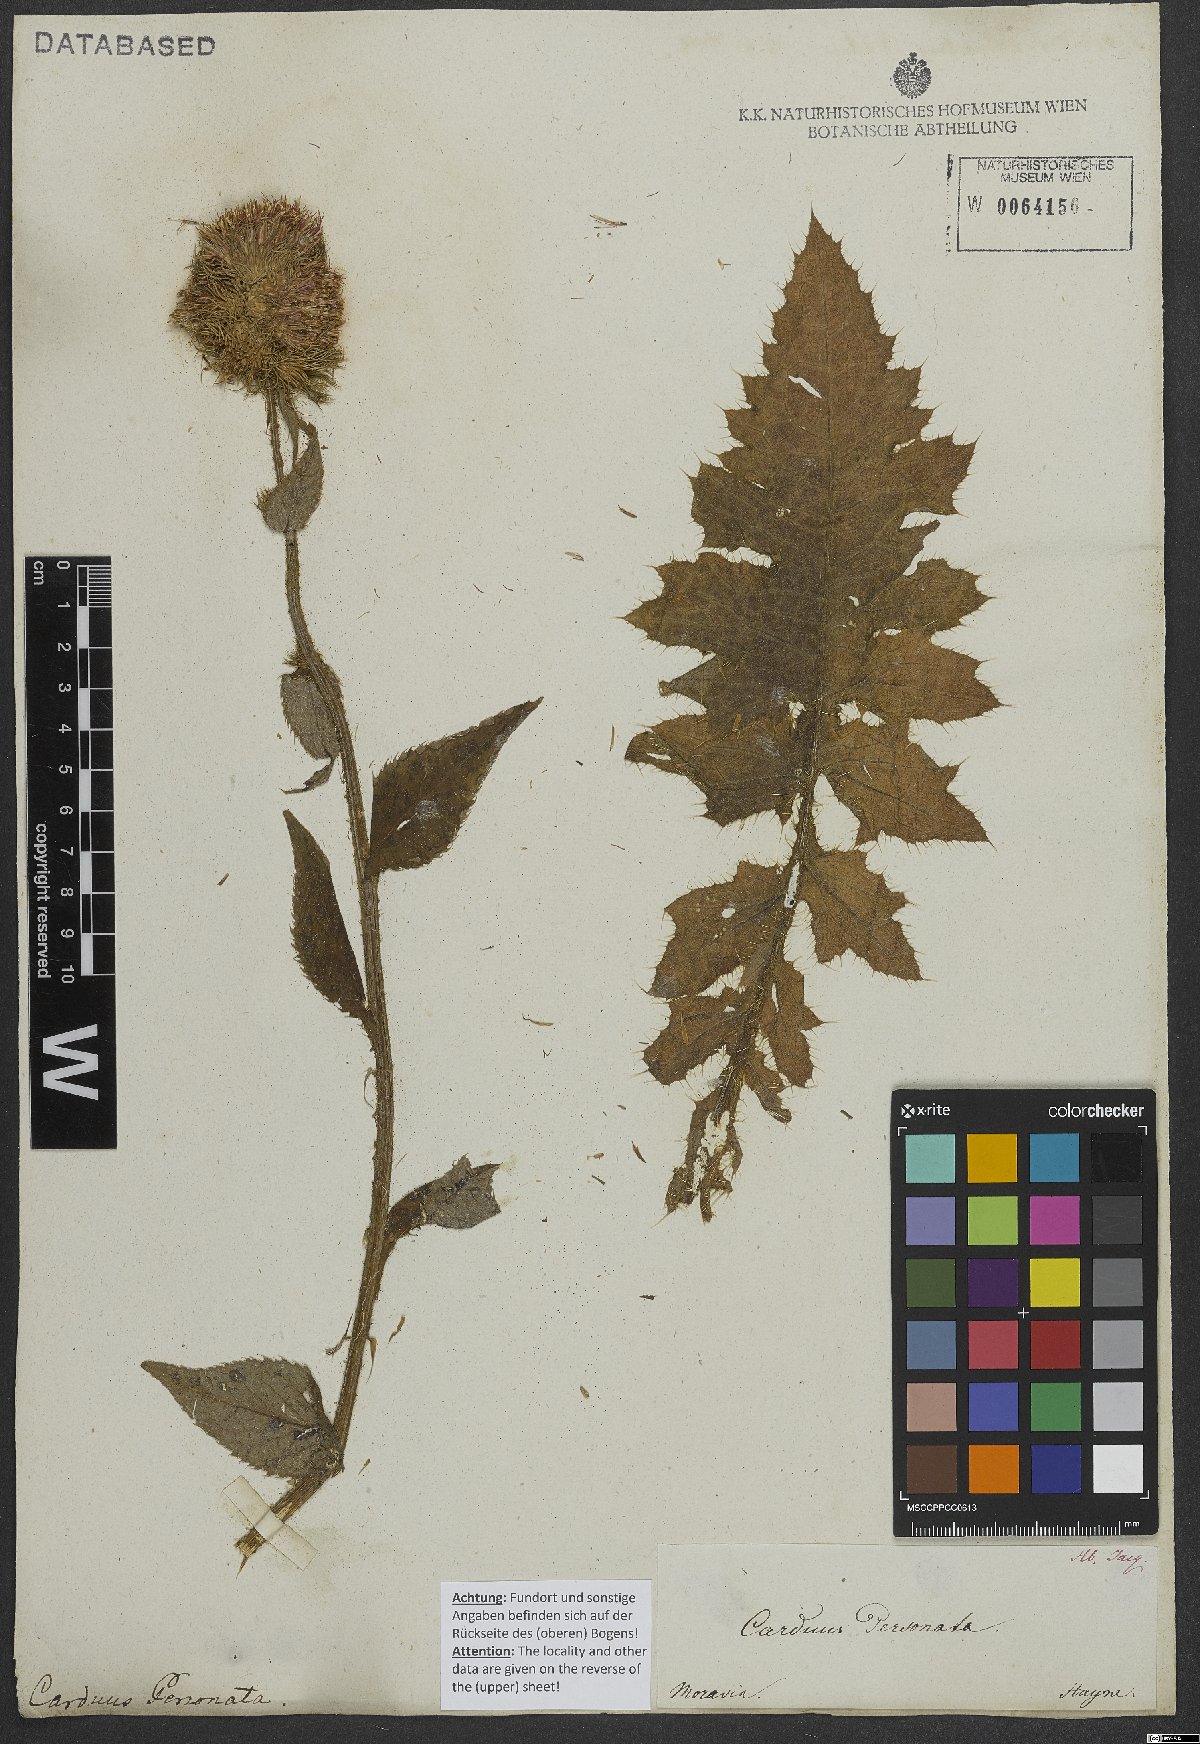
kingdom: Plantae
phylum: Tracheophyta
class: Magnoliopsida
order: Asterales
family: Asteraceae
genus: Carduus
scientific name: Carduus personata
